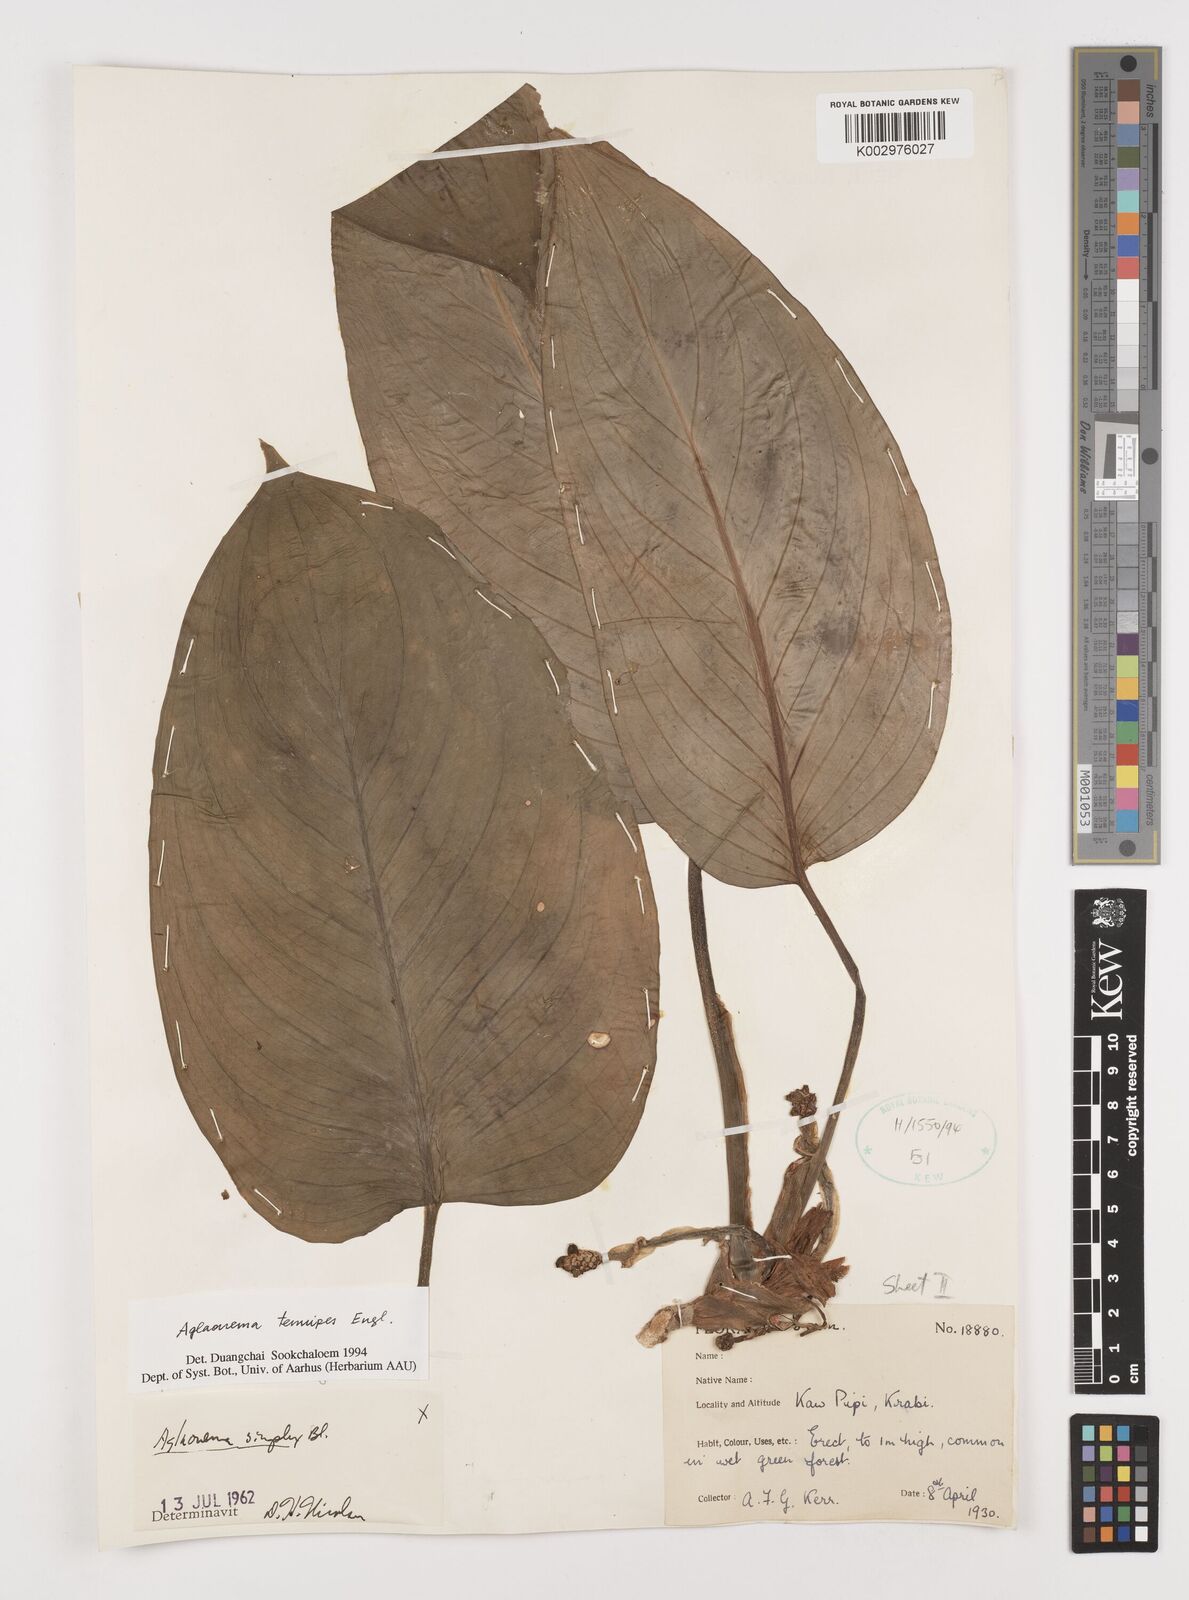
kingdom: Plantae
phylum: Tracheophyta
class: Liliopsida
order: Alismatales
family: Araceae
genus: Aglaonema
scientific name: Aglaonema simplex
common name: Malayan-sword
